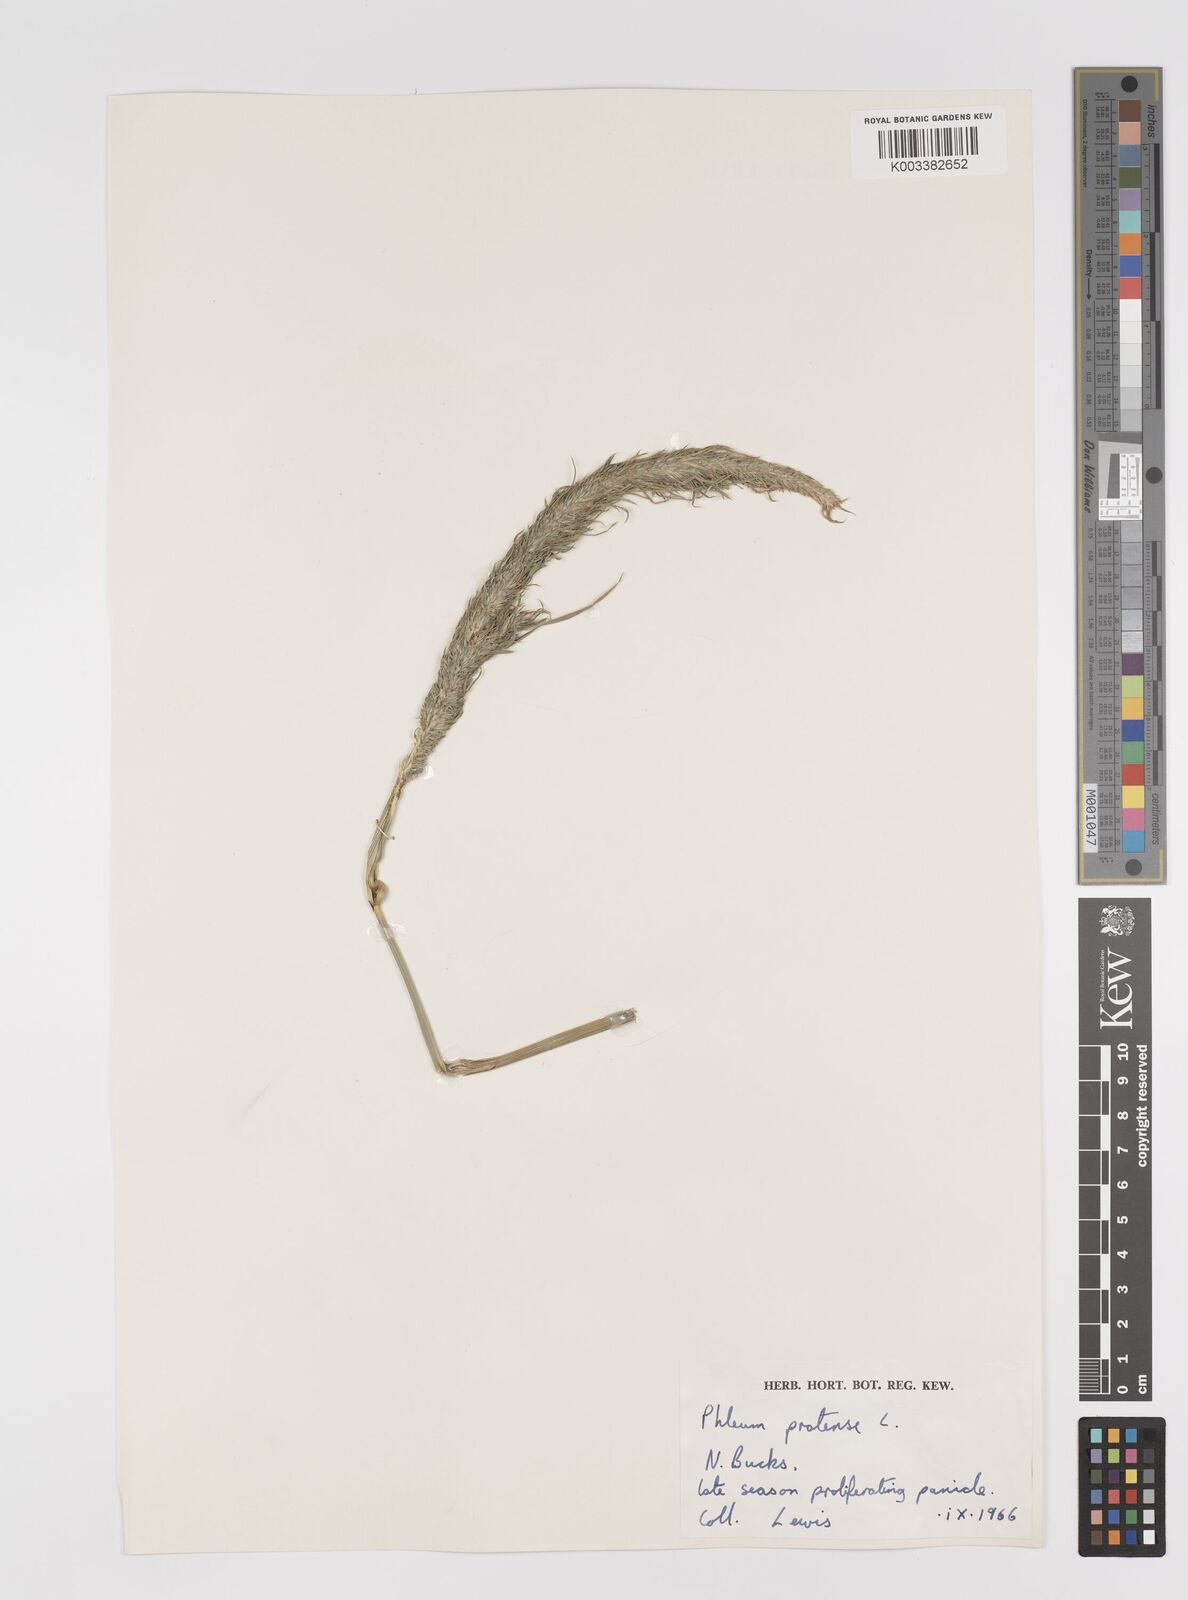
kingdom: Plantae
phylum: Tracheophyta
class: Liliopsida
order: Poales
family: Poaceae
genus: Phleum
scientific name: Phleum pratense
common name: Timothy grass
